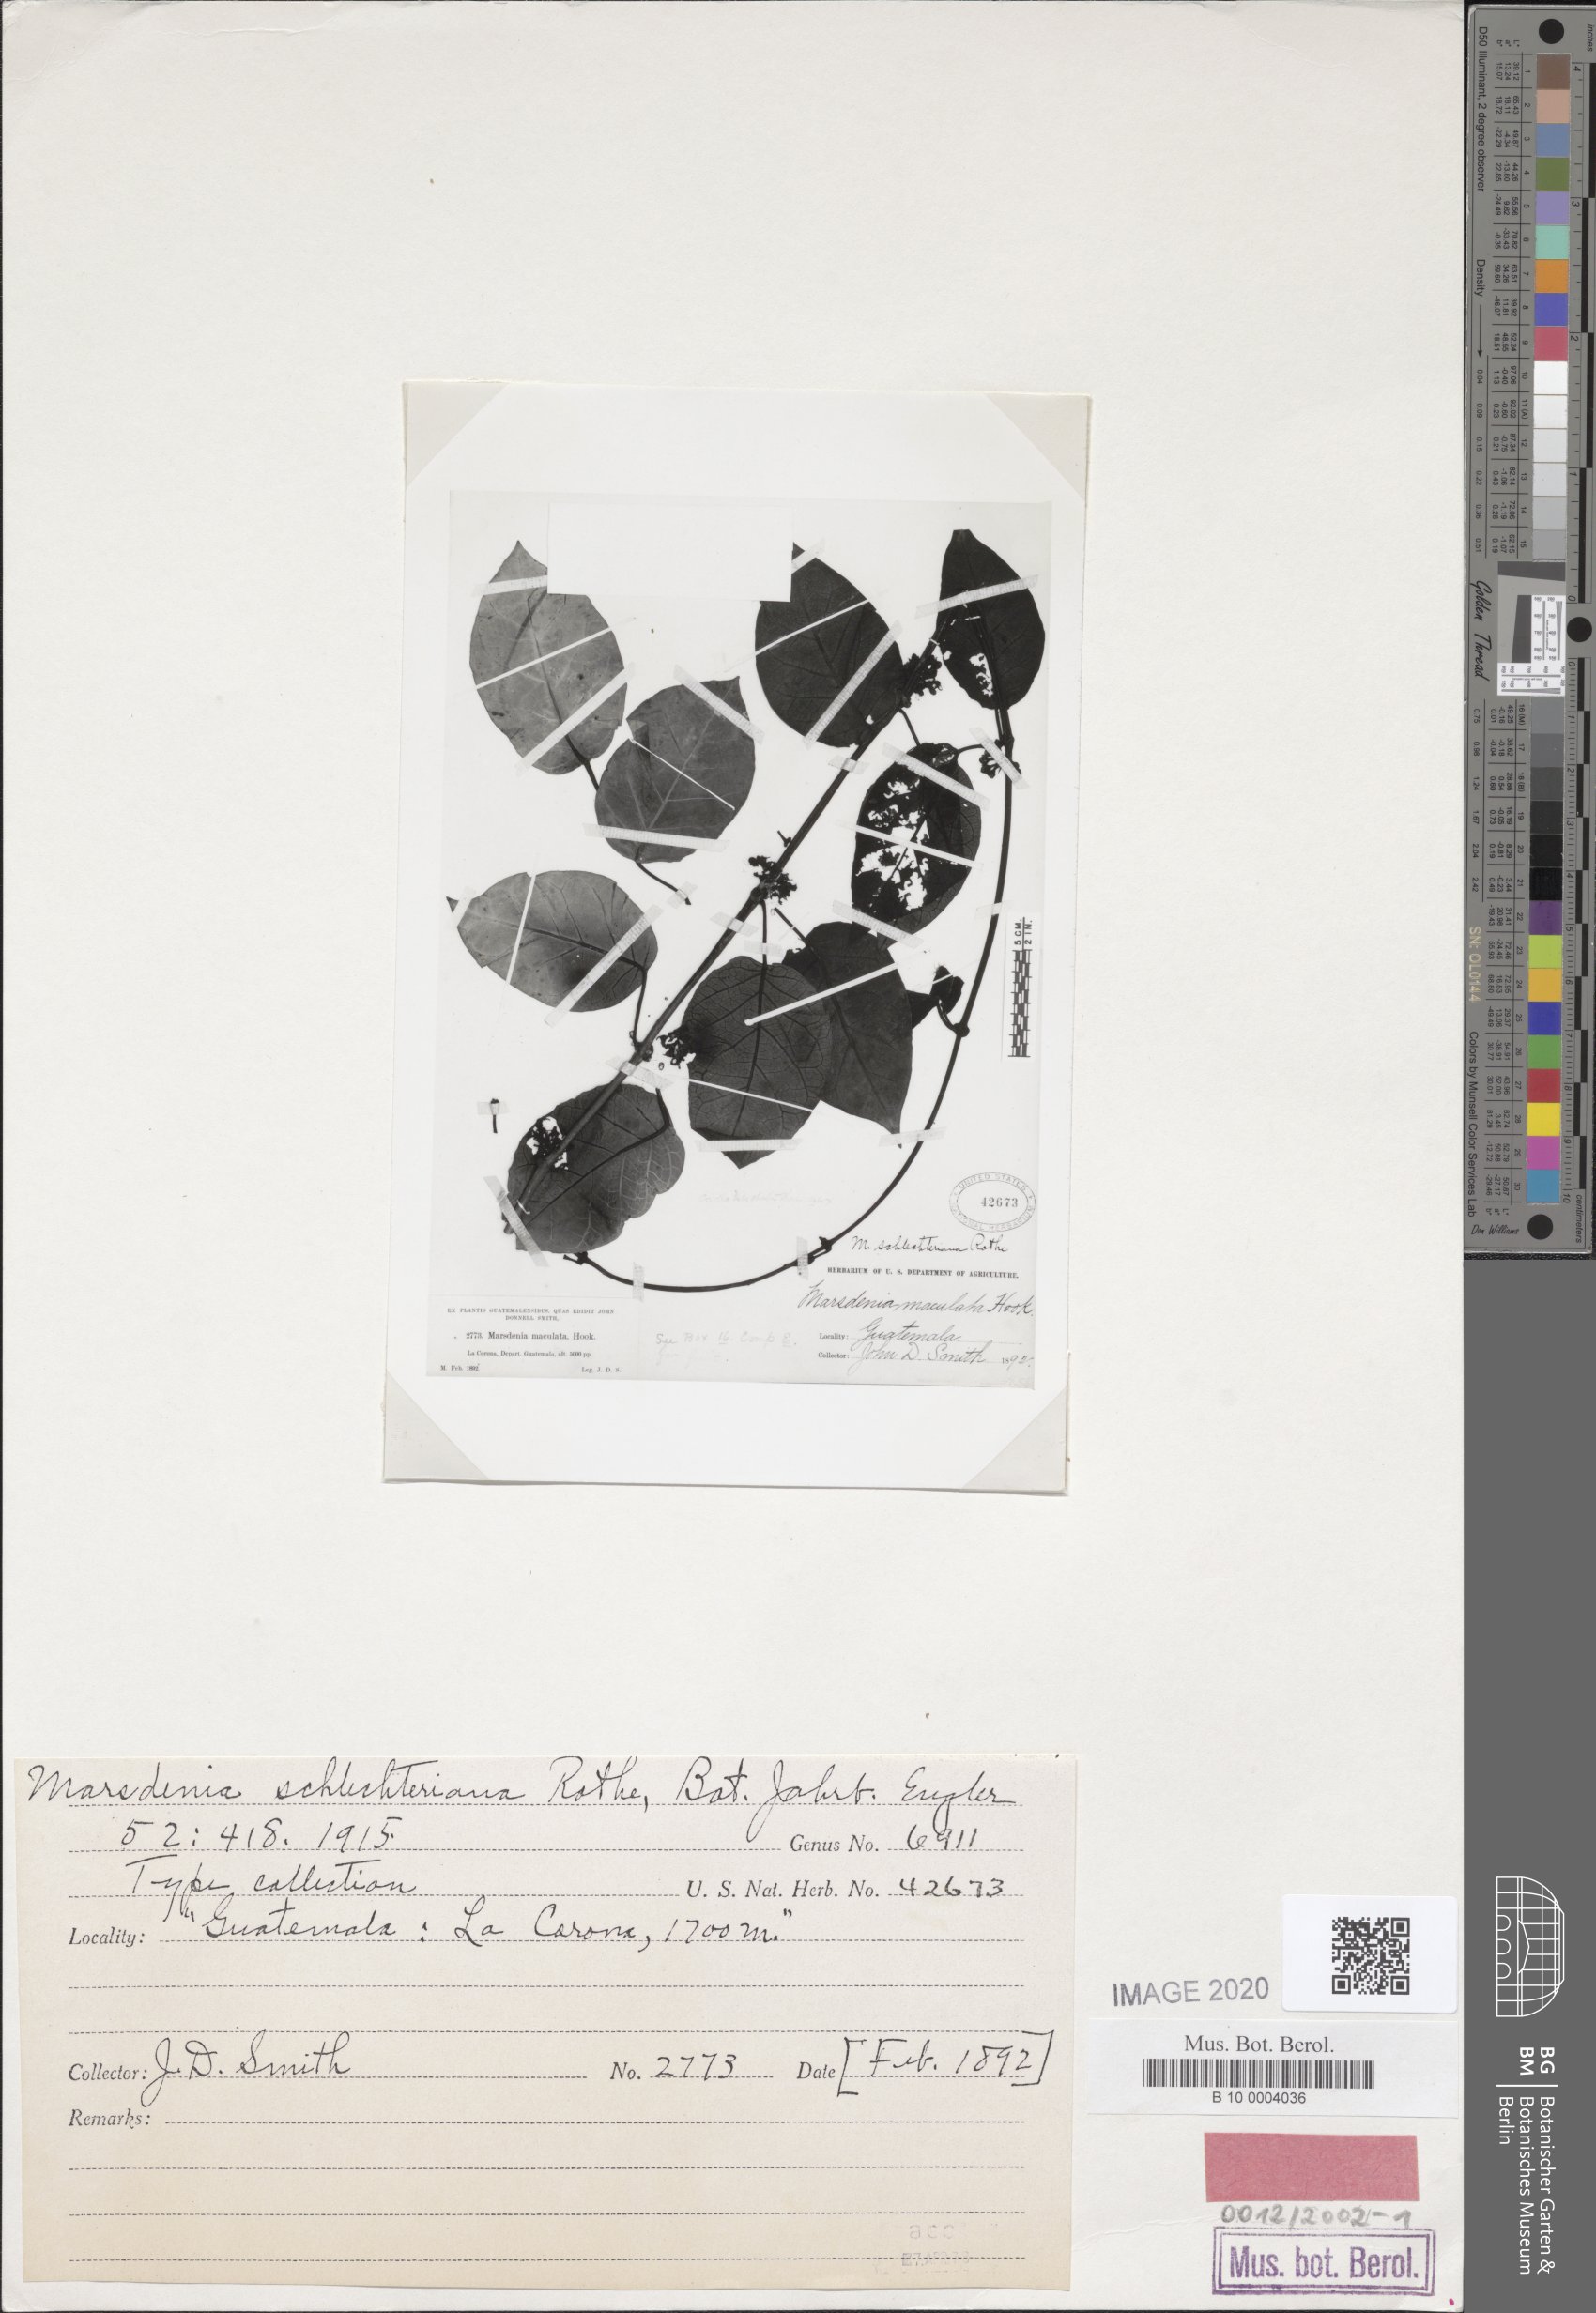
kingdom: Plantae
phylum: Tracheophyta
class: Magnoliopsida
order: Gentianales
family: Apocynaceae
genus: Ruehssia
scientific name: Ruehssia schlechteriana
